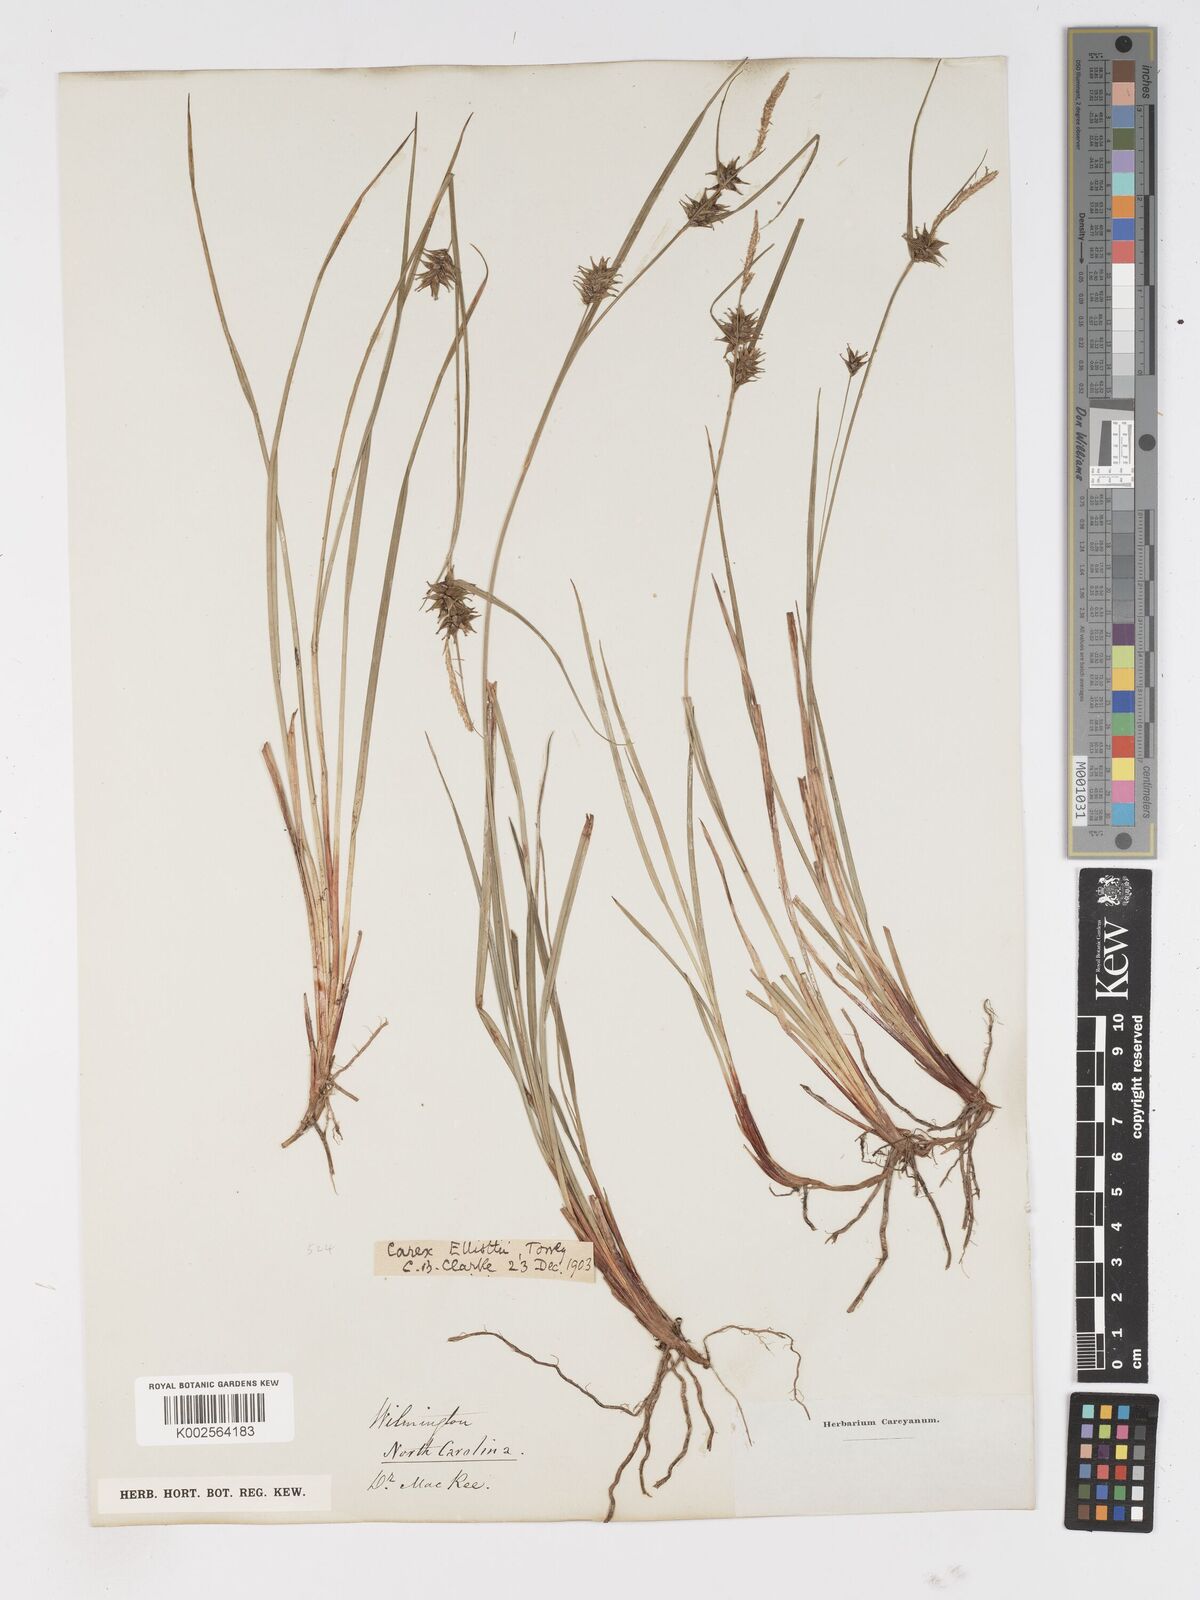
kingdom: Plantae
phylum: Tracheophyta
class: Liliopsida
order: Poales
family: Cyperaceae
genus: Carex
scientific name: Carex elliottii
